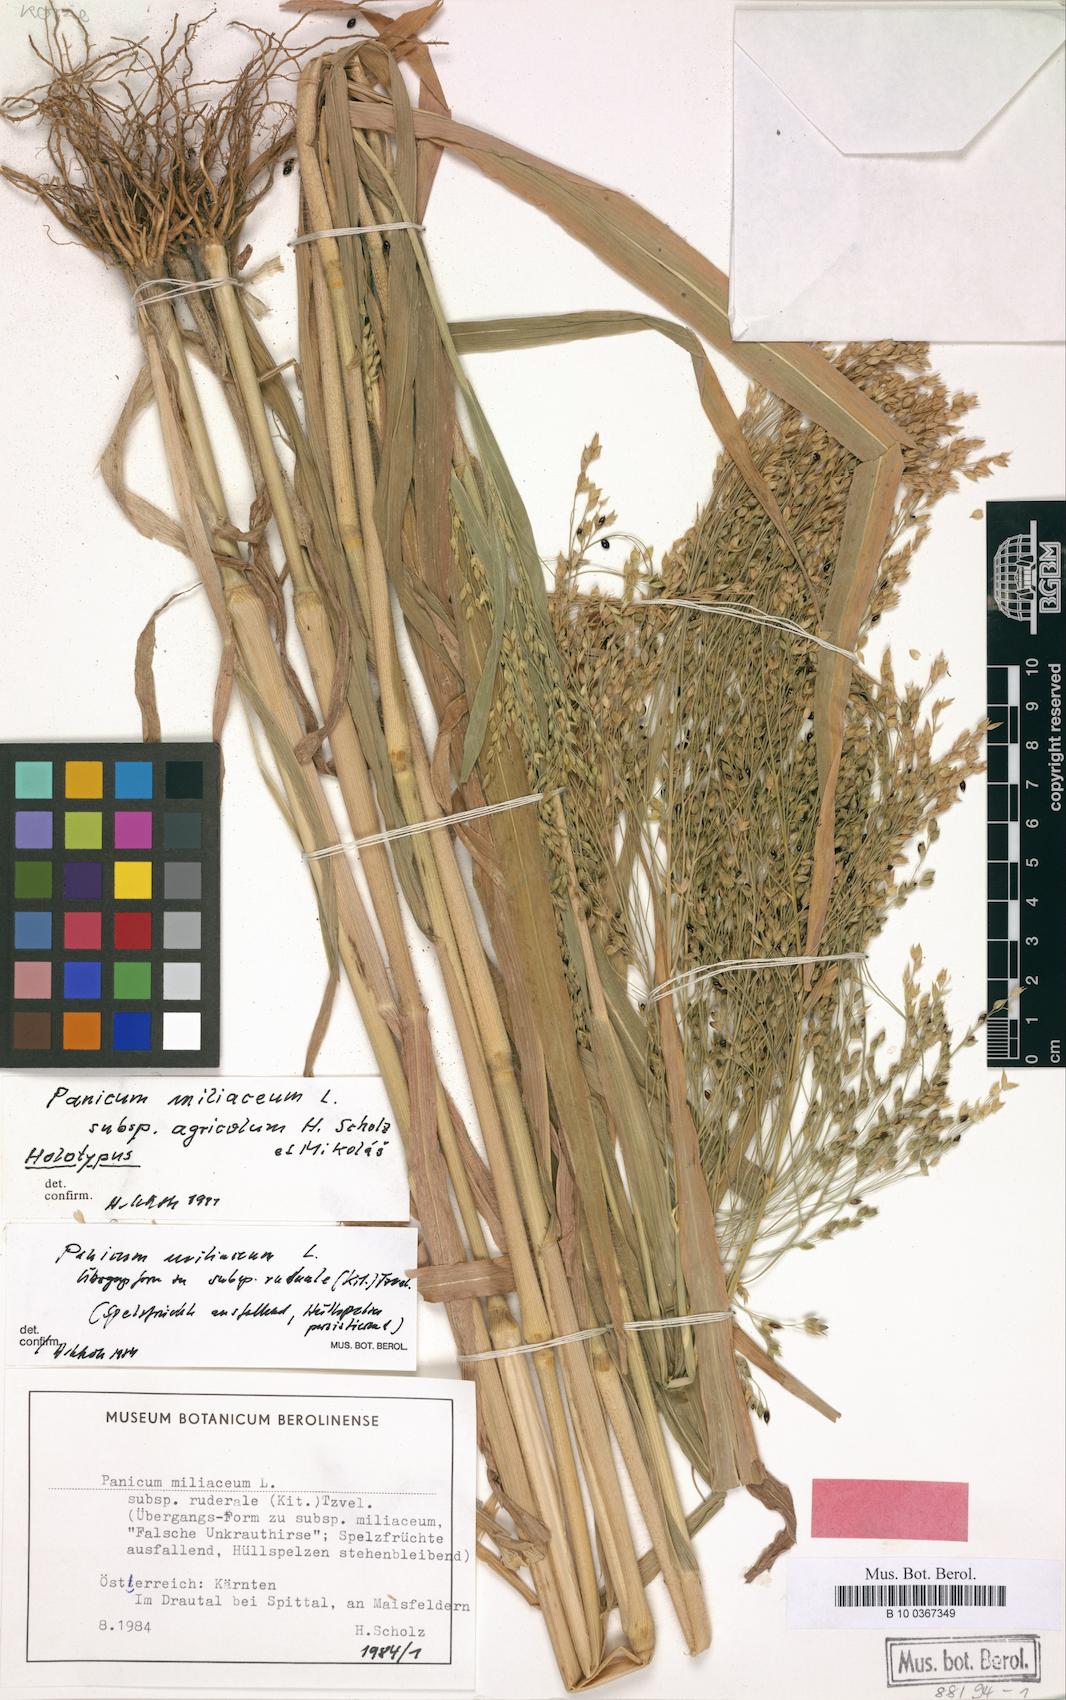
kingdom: Plantae
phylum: Tracheophyta
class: Liliopsida
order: Poales
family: Poaceae
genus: Panicum
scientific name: Panicum miliaceum
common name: Common millet
